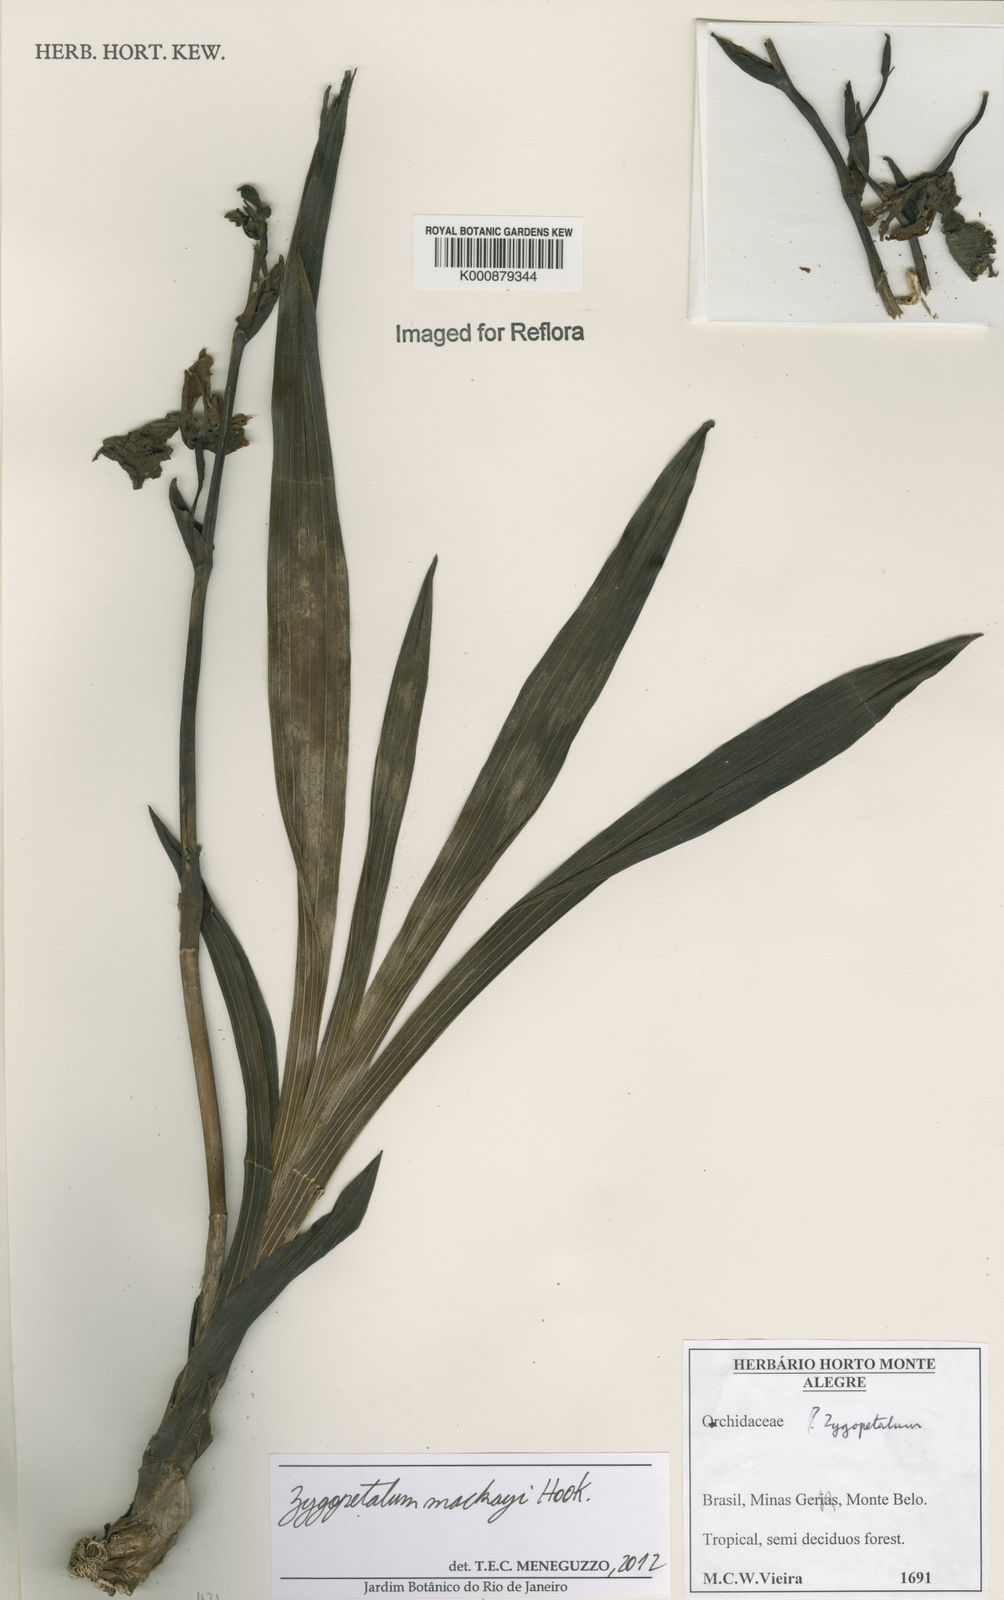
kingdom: Plantae
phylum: Tracheophyta
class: Liliopsida
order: Asparagales
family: Orchidaceae
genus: Zygopetalum
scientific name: Zygopetalum maculatum
